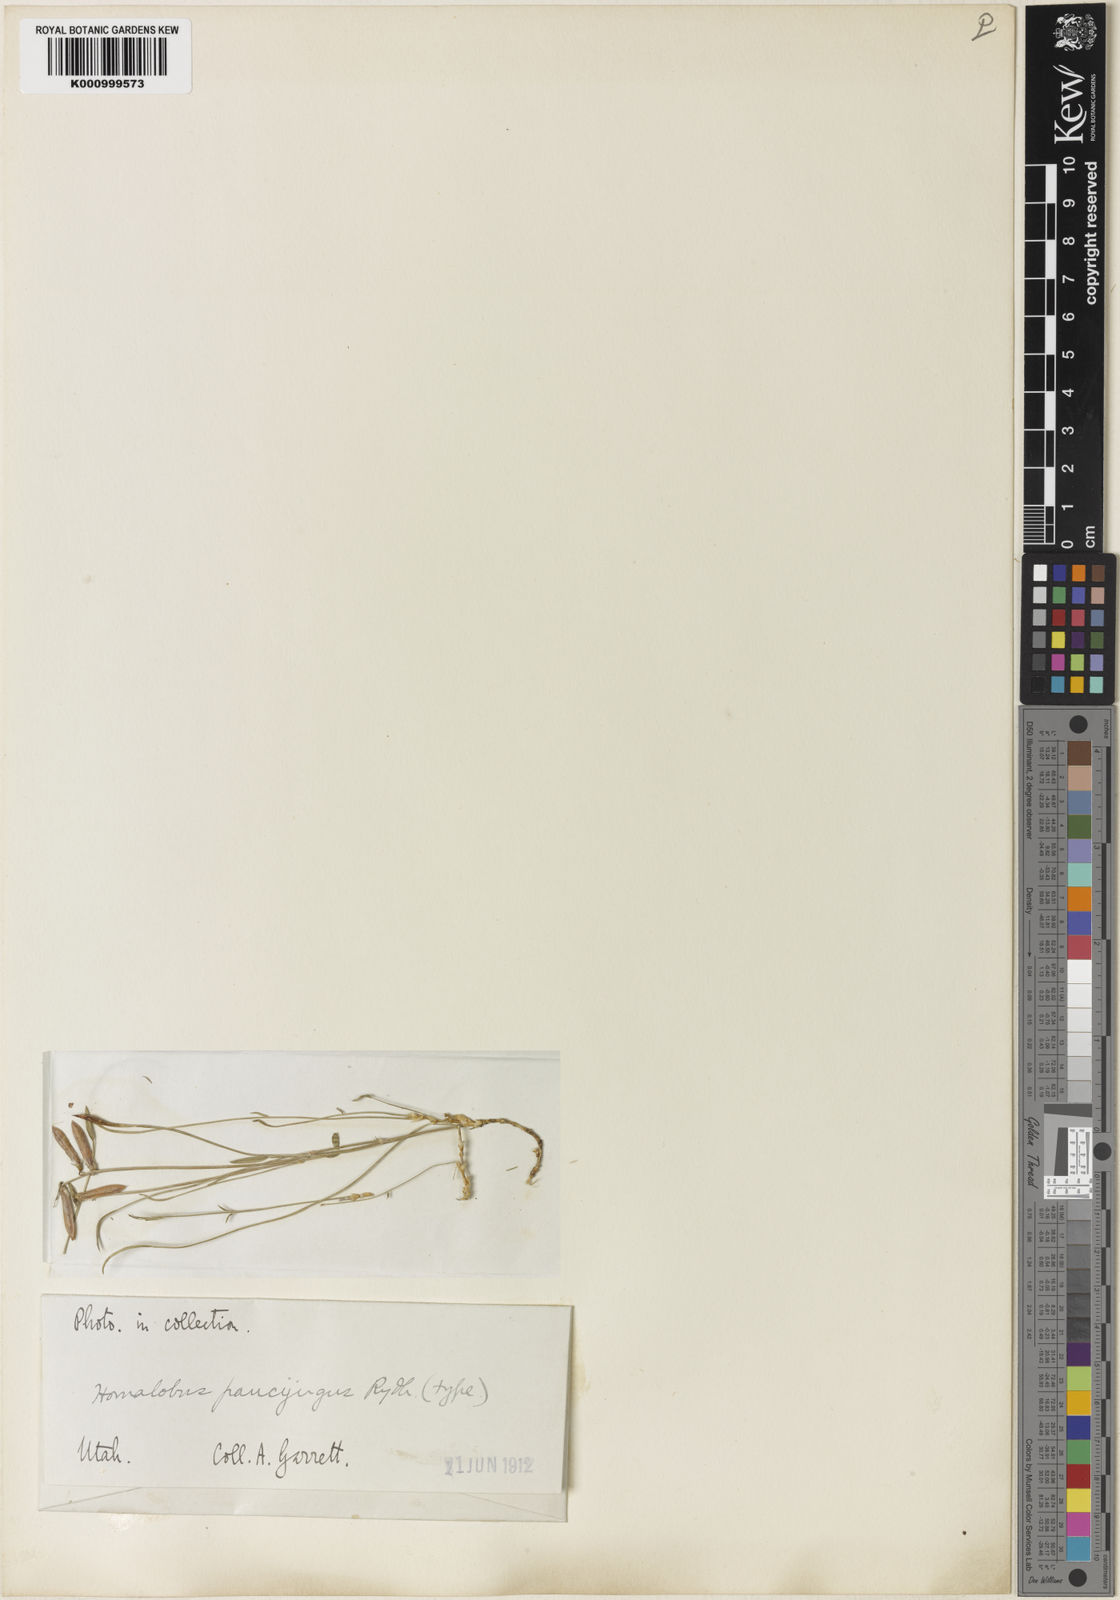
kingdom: Plantae
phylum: Tracheophyta
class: Magnoliopsida
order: Fabales
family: Fabaceae
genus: Astragalus
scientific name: Astragalus paucijugus
